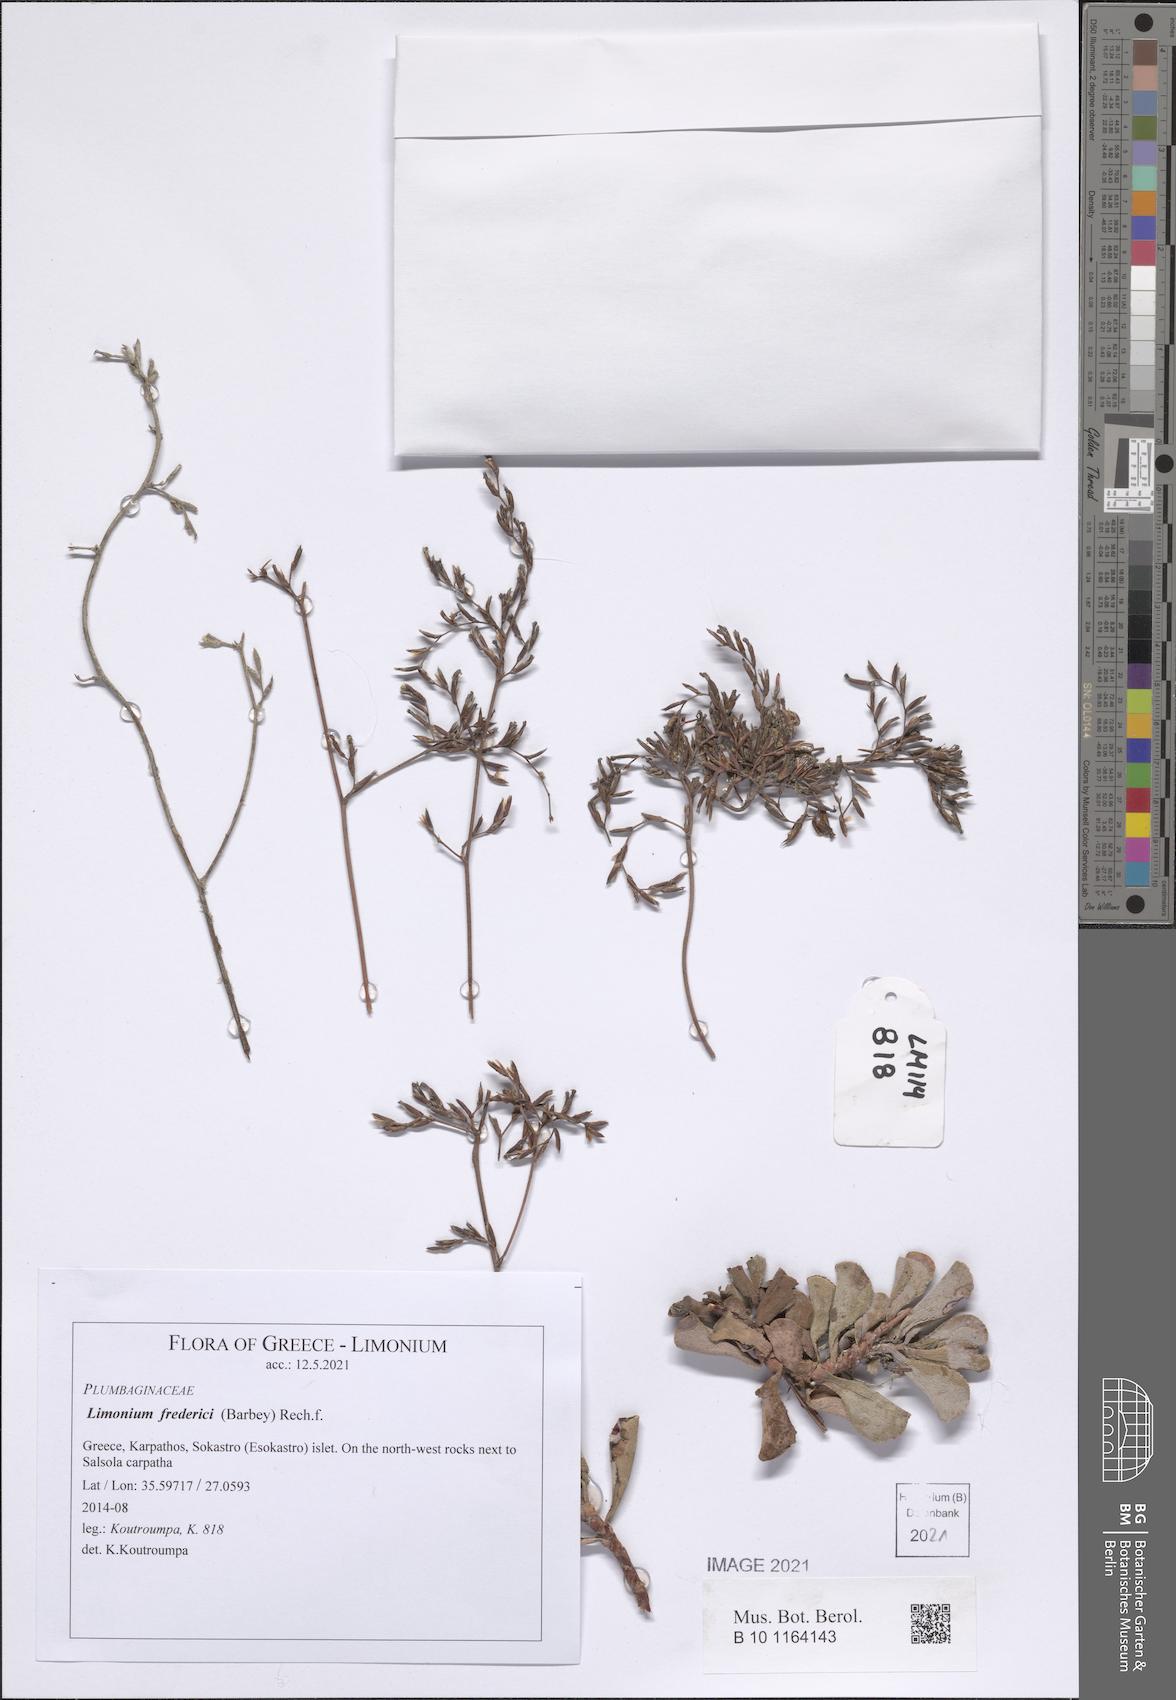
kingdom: Plantae
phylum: Tracheophyta
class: Magnoliopsida
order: Caryophyllales
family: Plumbaginaceae
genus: Limonium
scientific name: Limonium frederici
